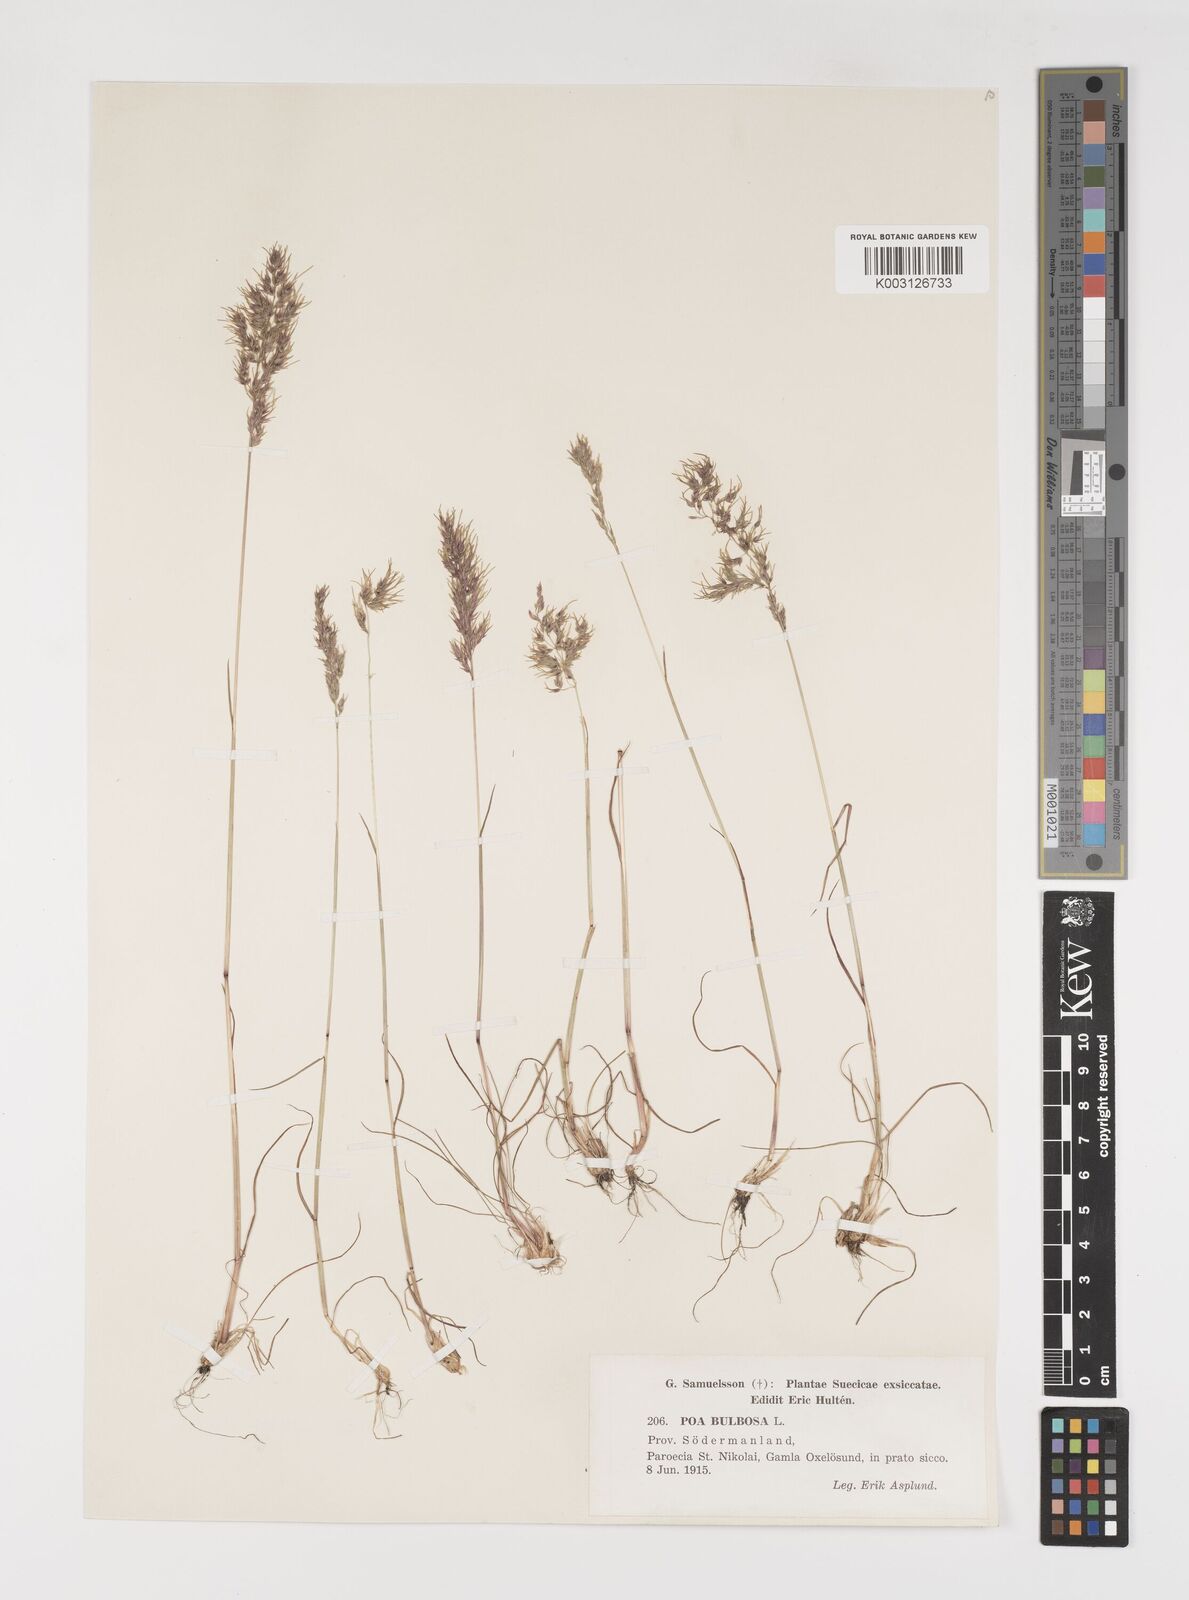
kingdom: Plantae
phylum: Tracheophyta
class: Liliopsida
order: Poales
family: Poaceae
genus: Poa
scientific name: Poa bulbosa
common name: Bulbous bluegrass
